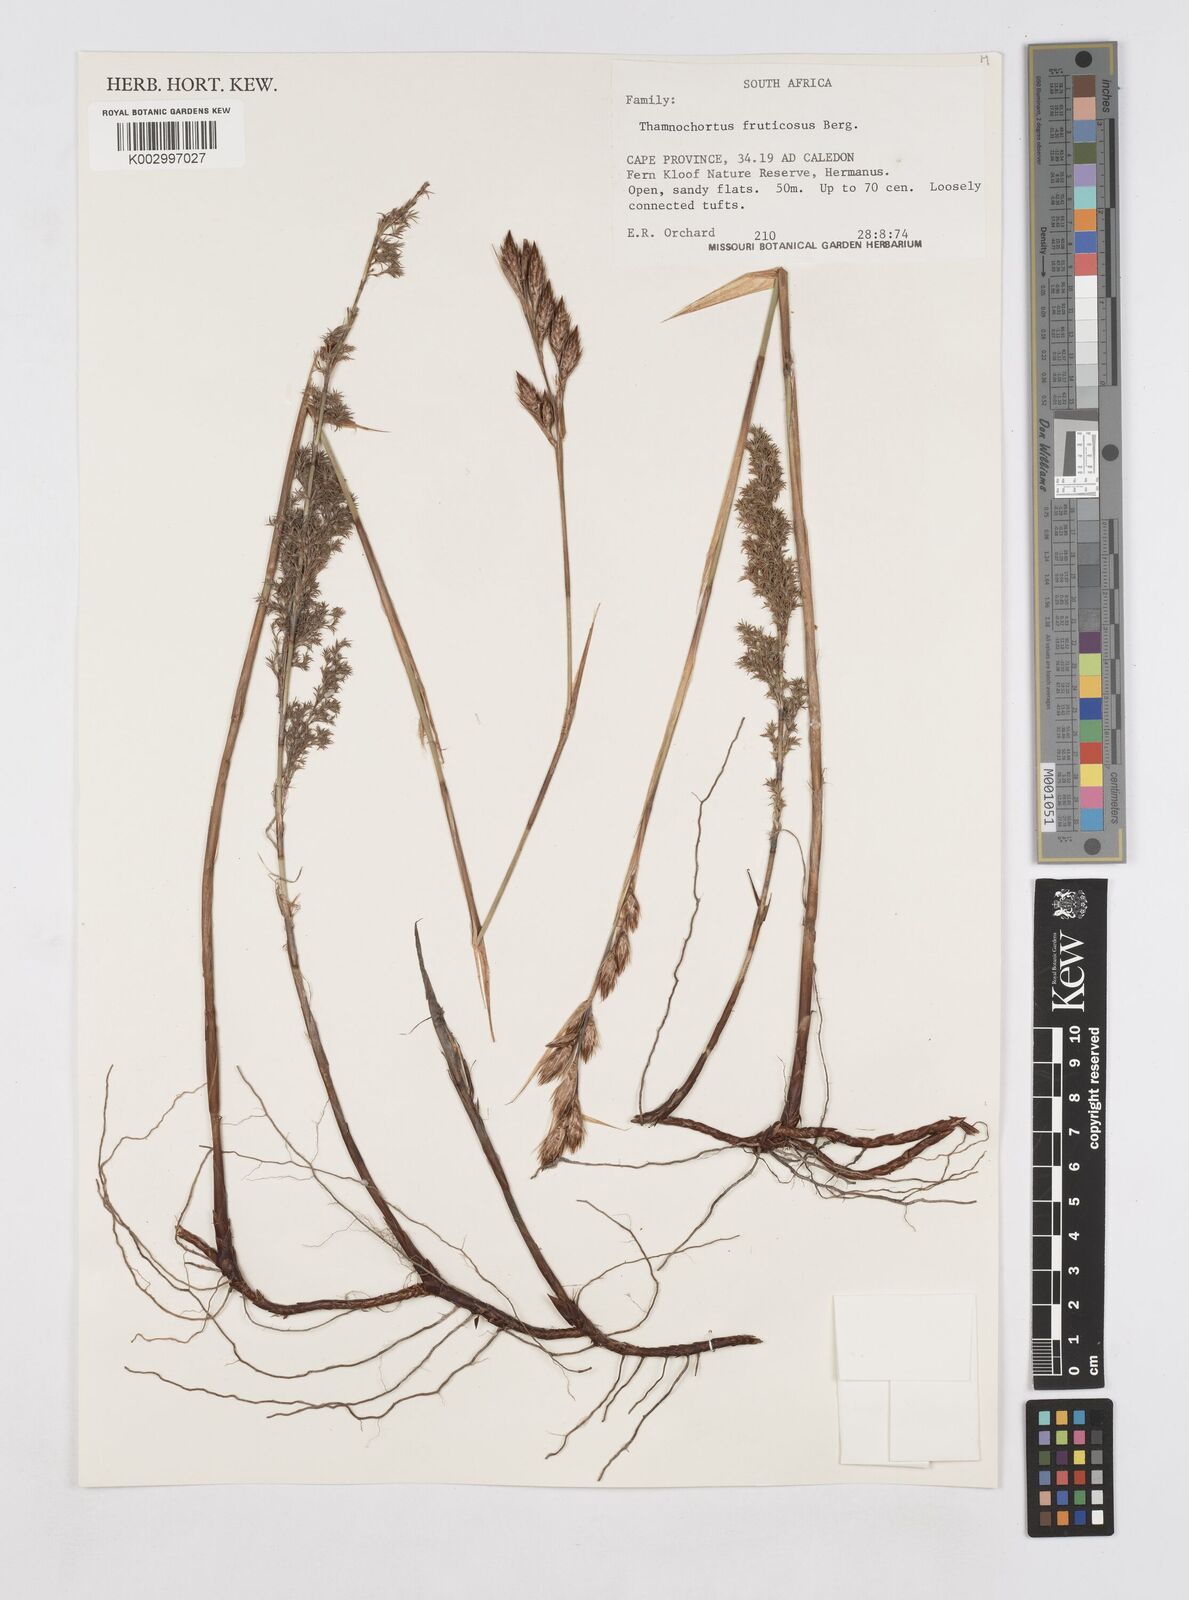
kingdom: Plantae
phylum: Tracheophyta
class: Liliopsida
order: Poales
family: Restionaceae
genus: Thamnochortus
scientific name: Thamnochortus fruticosus
